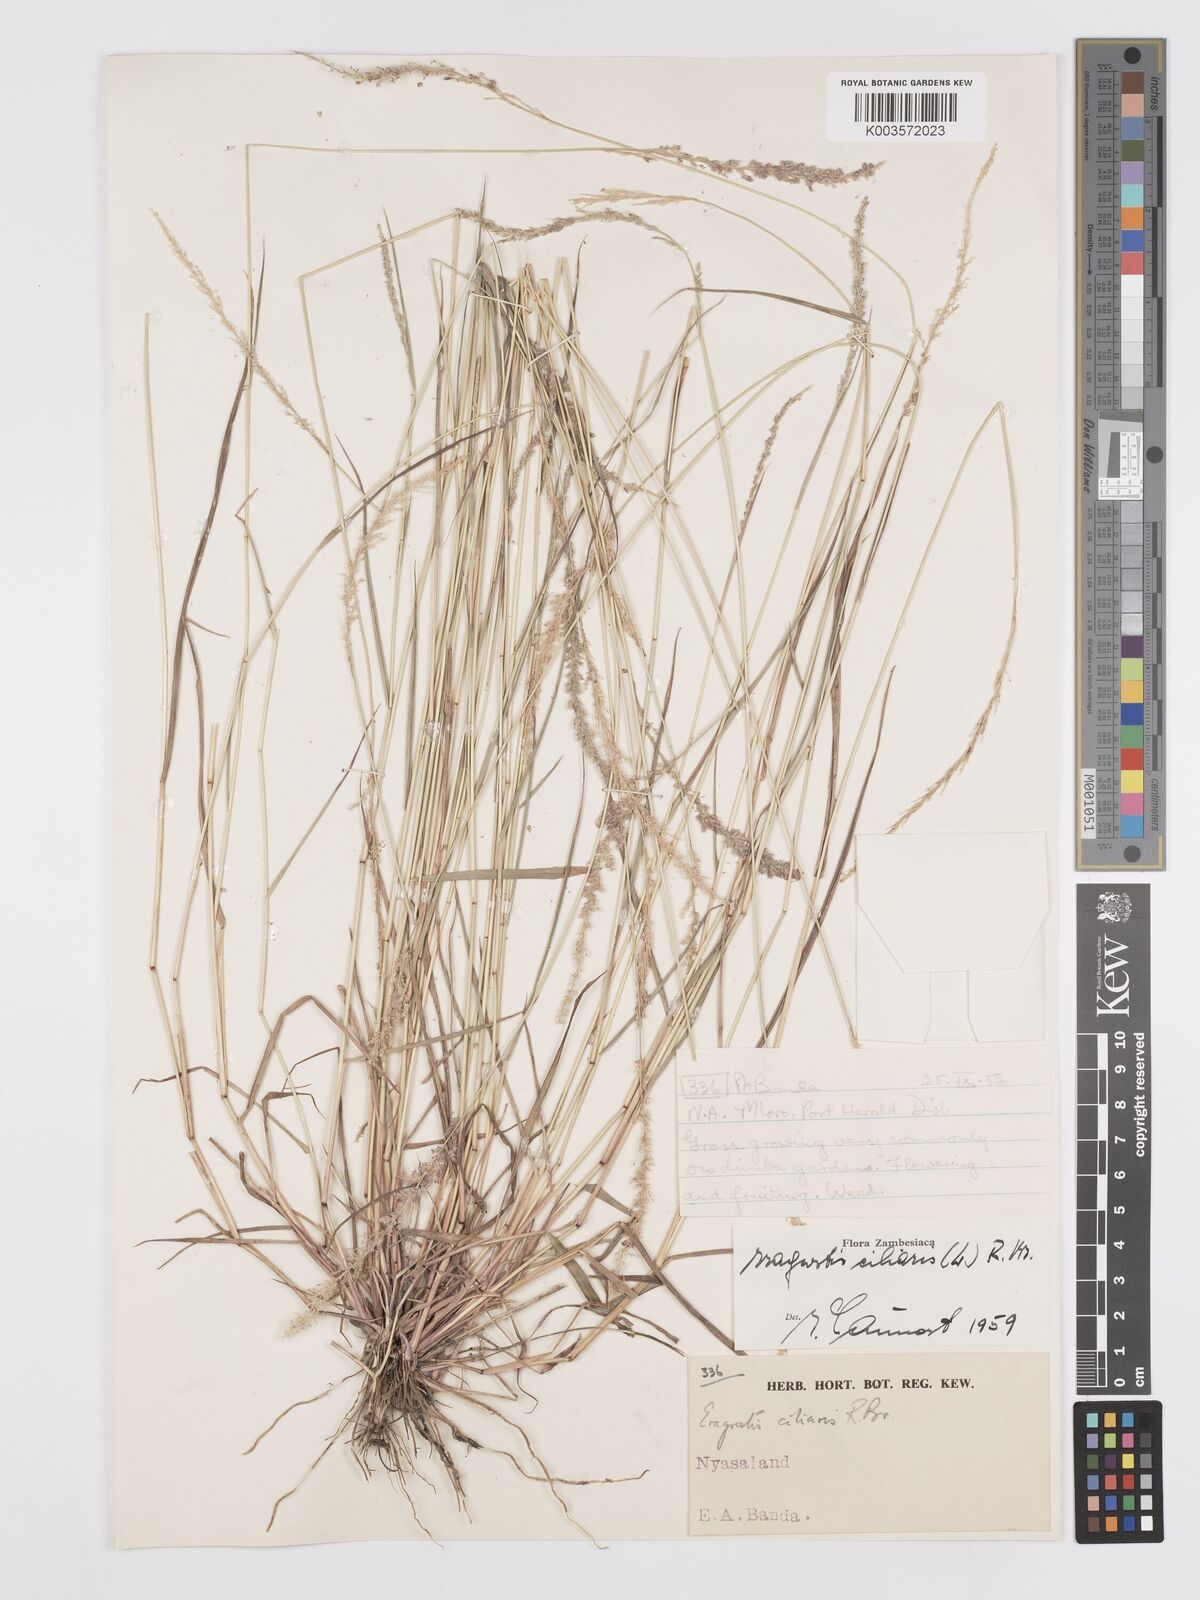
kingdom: Plantae
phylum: Tracheophyta
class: Liliopsida
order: Poales
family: Poaceae
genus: Eragrostis
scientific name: Eragrostis ciliaris
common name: Gophertail lovegrass
